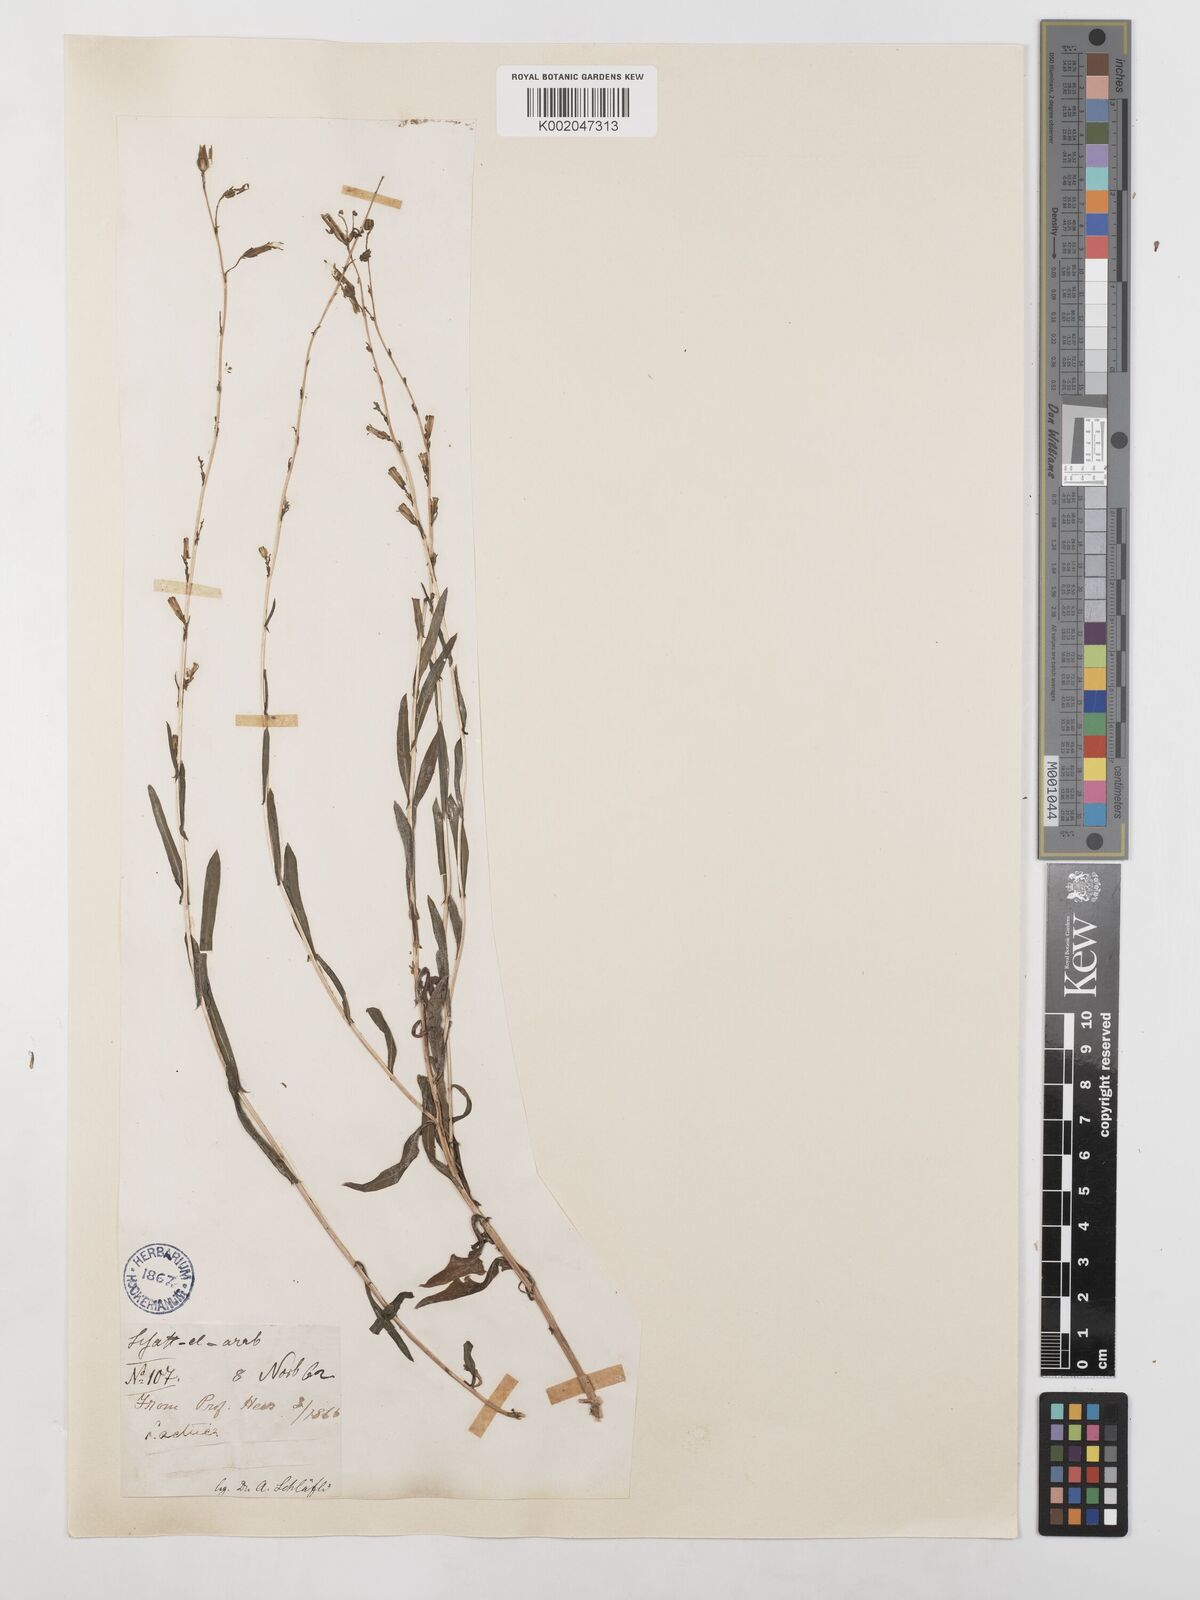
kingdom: Plantae
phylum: Tracheophyta
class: Magnoliopsida
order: Asterales
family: Asteraceae
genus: Lactuca
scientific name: Lactuca saligna
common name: Wild lettuce
